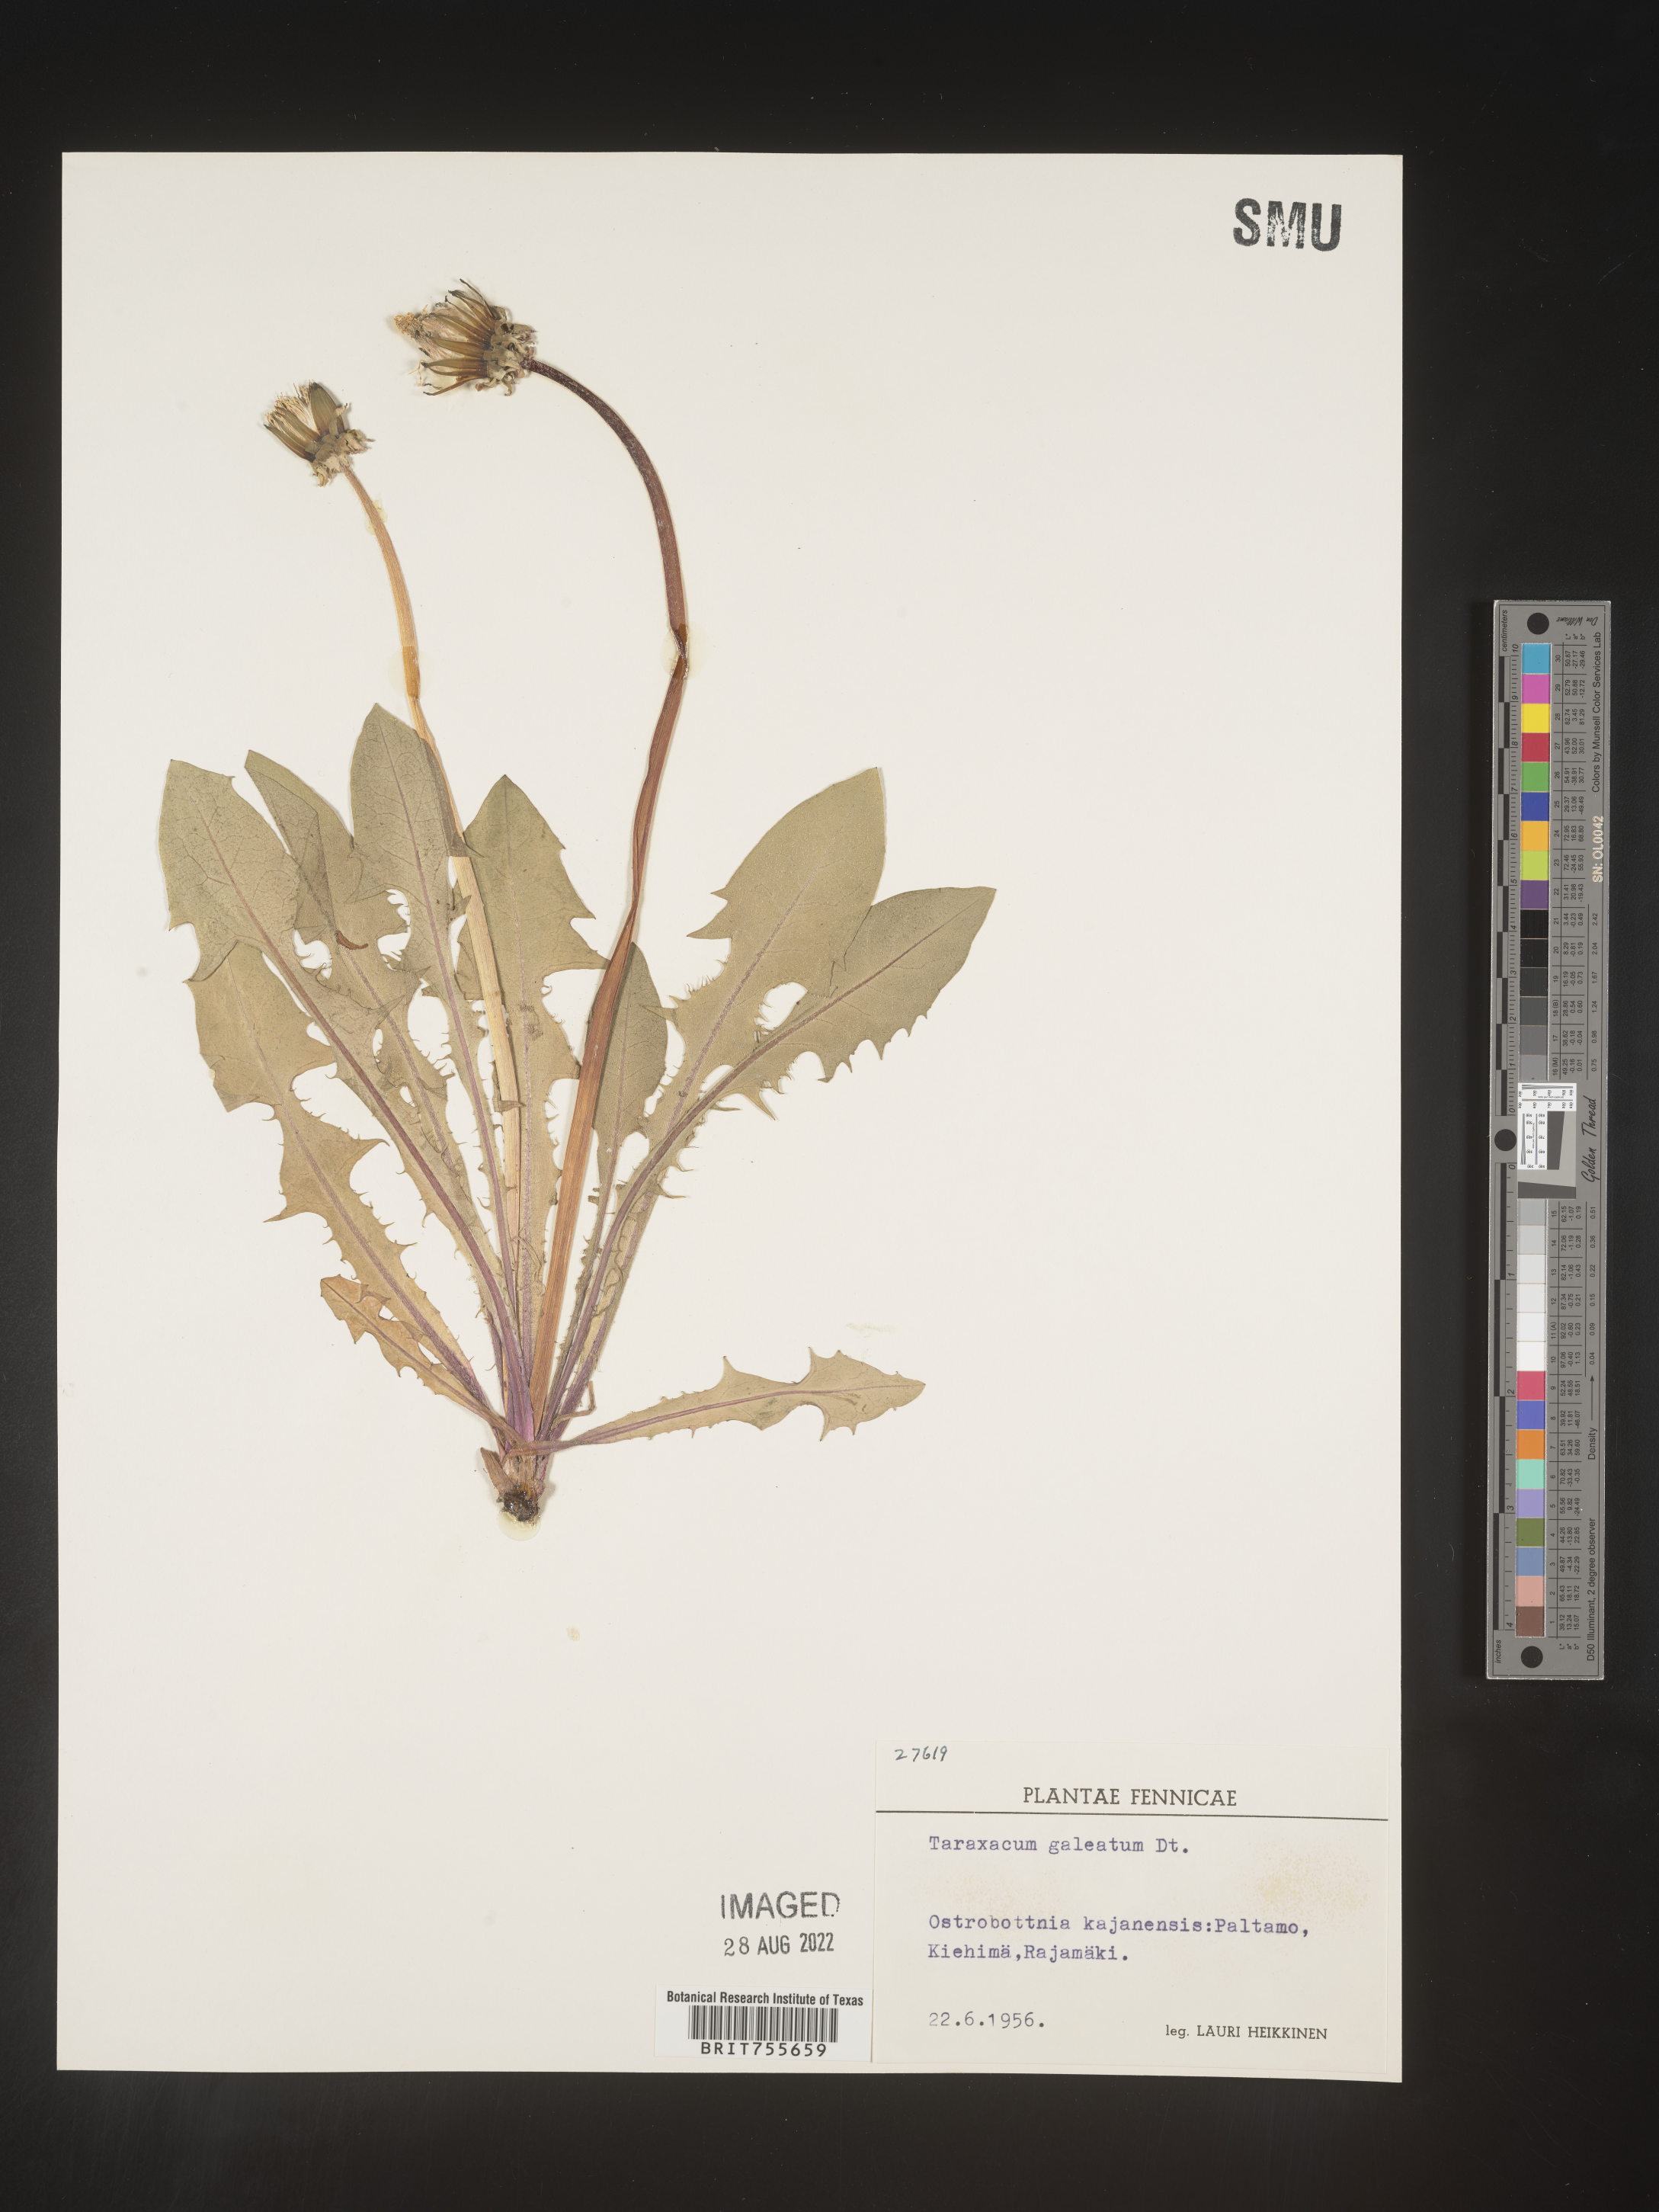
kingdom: Plantae
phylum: Tracheophyta
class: Magnoliopsida
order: Asterales
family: Asteraceae
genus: Taraxacum
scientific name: Taraxacum
